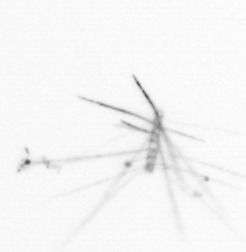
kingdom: Chromista
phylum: Ochrophyta
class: Bacillariophyceae
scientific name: Bacillariophyceae
